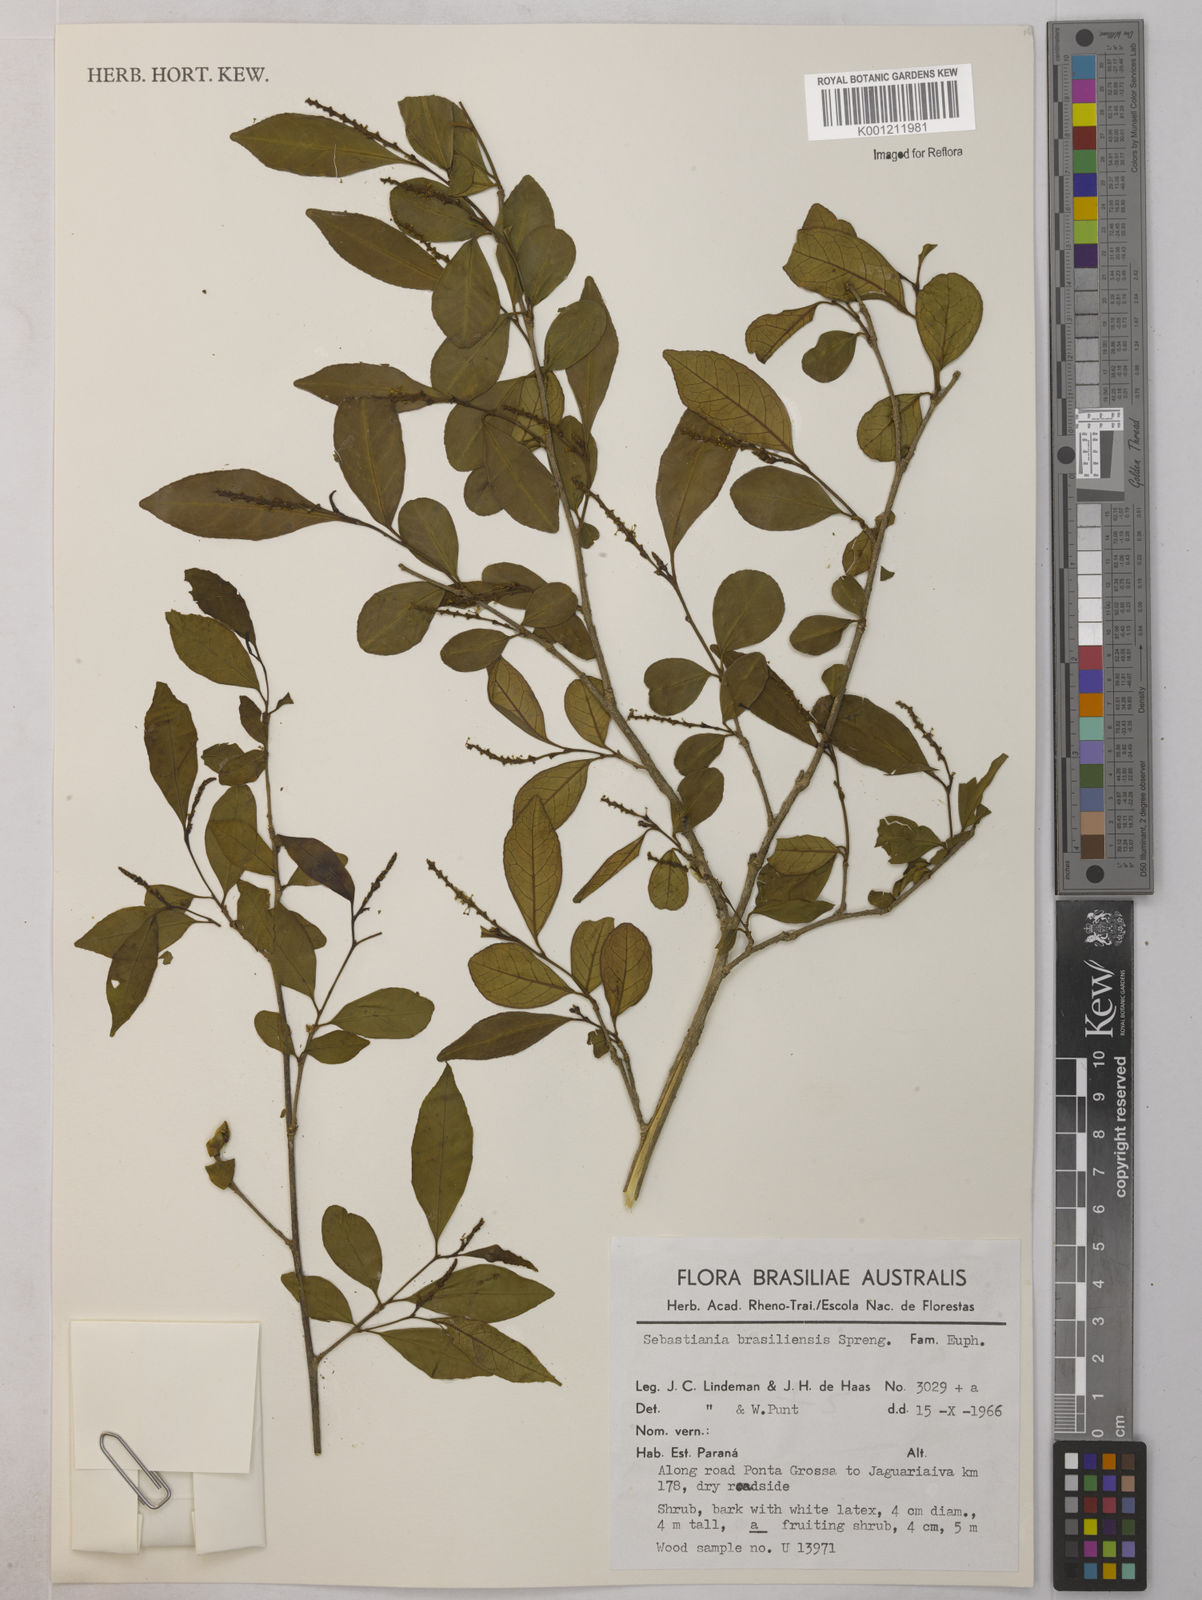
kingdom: Plantae
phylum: Tracheophyta
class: Magnoliopsida
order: Malpighiales
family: Euphorbiaceae
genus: Sebastiania
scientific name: Sebastiania brasiliensis
